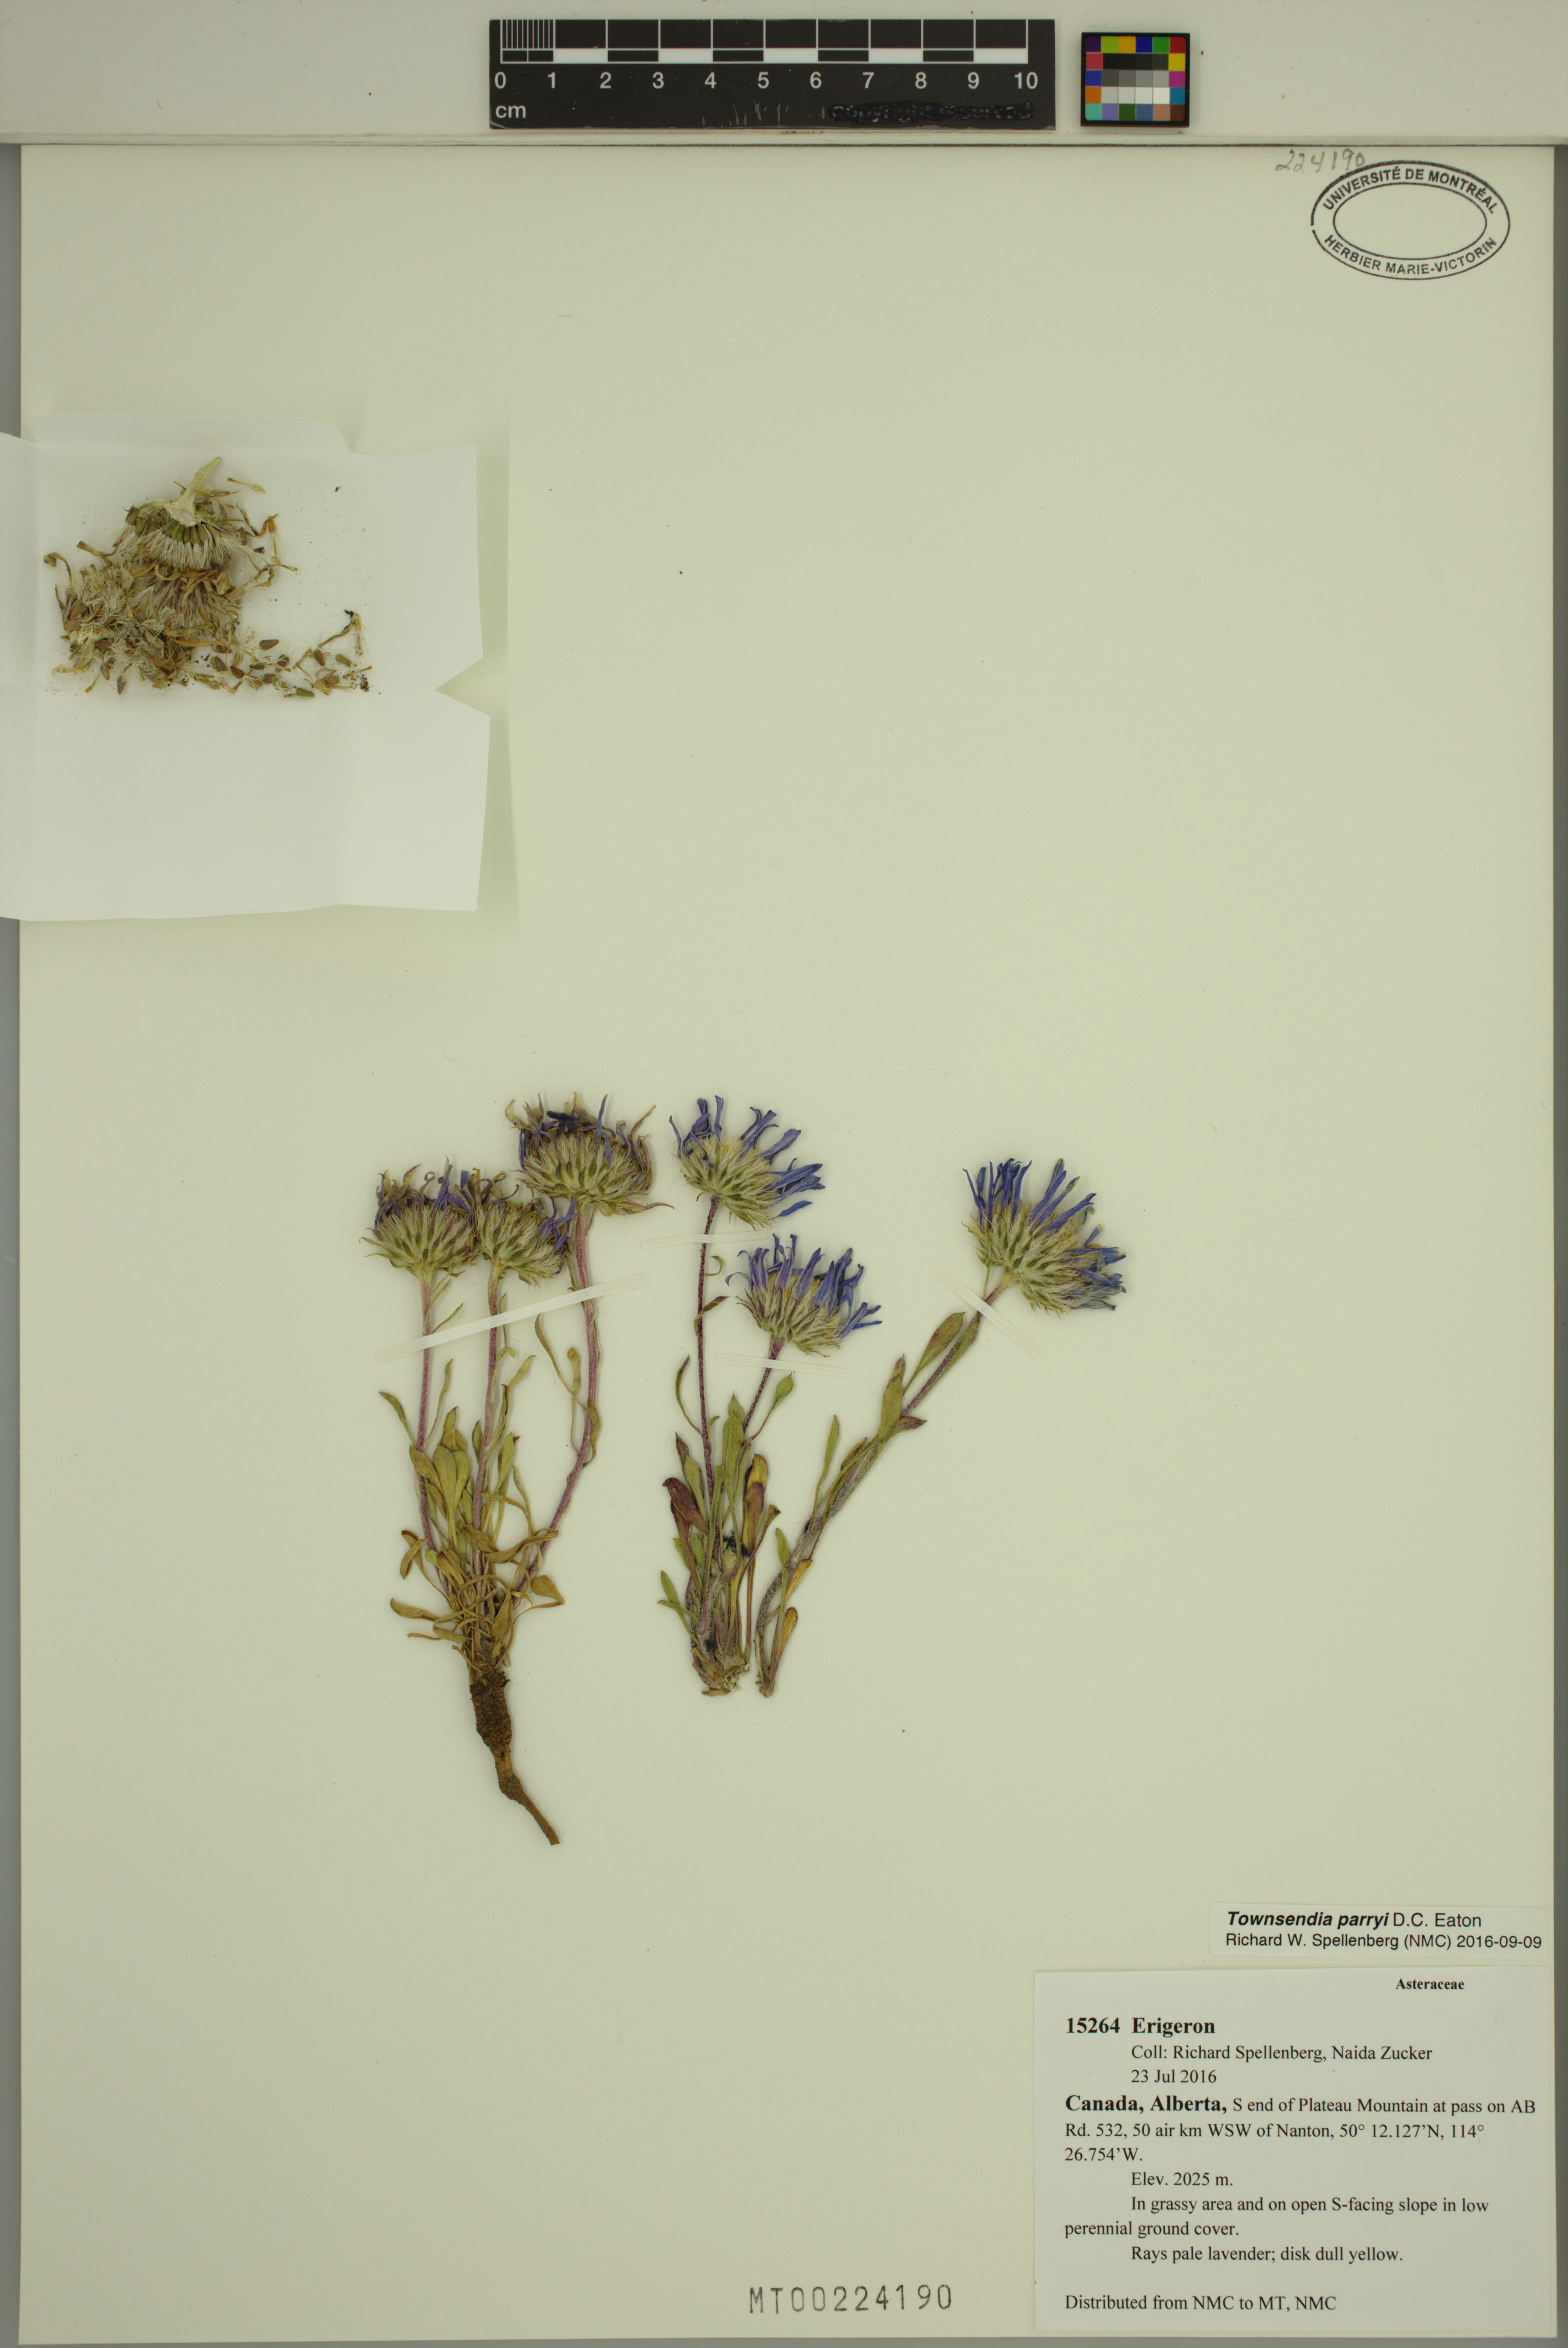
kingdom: Plantae
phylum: Tracheophyta
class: Magnoliopsida
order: Asterales
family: Asteraceae
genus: Townsendia
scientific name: Townsendia parryi
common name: Parry's townsend daisy
